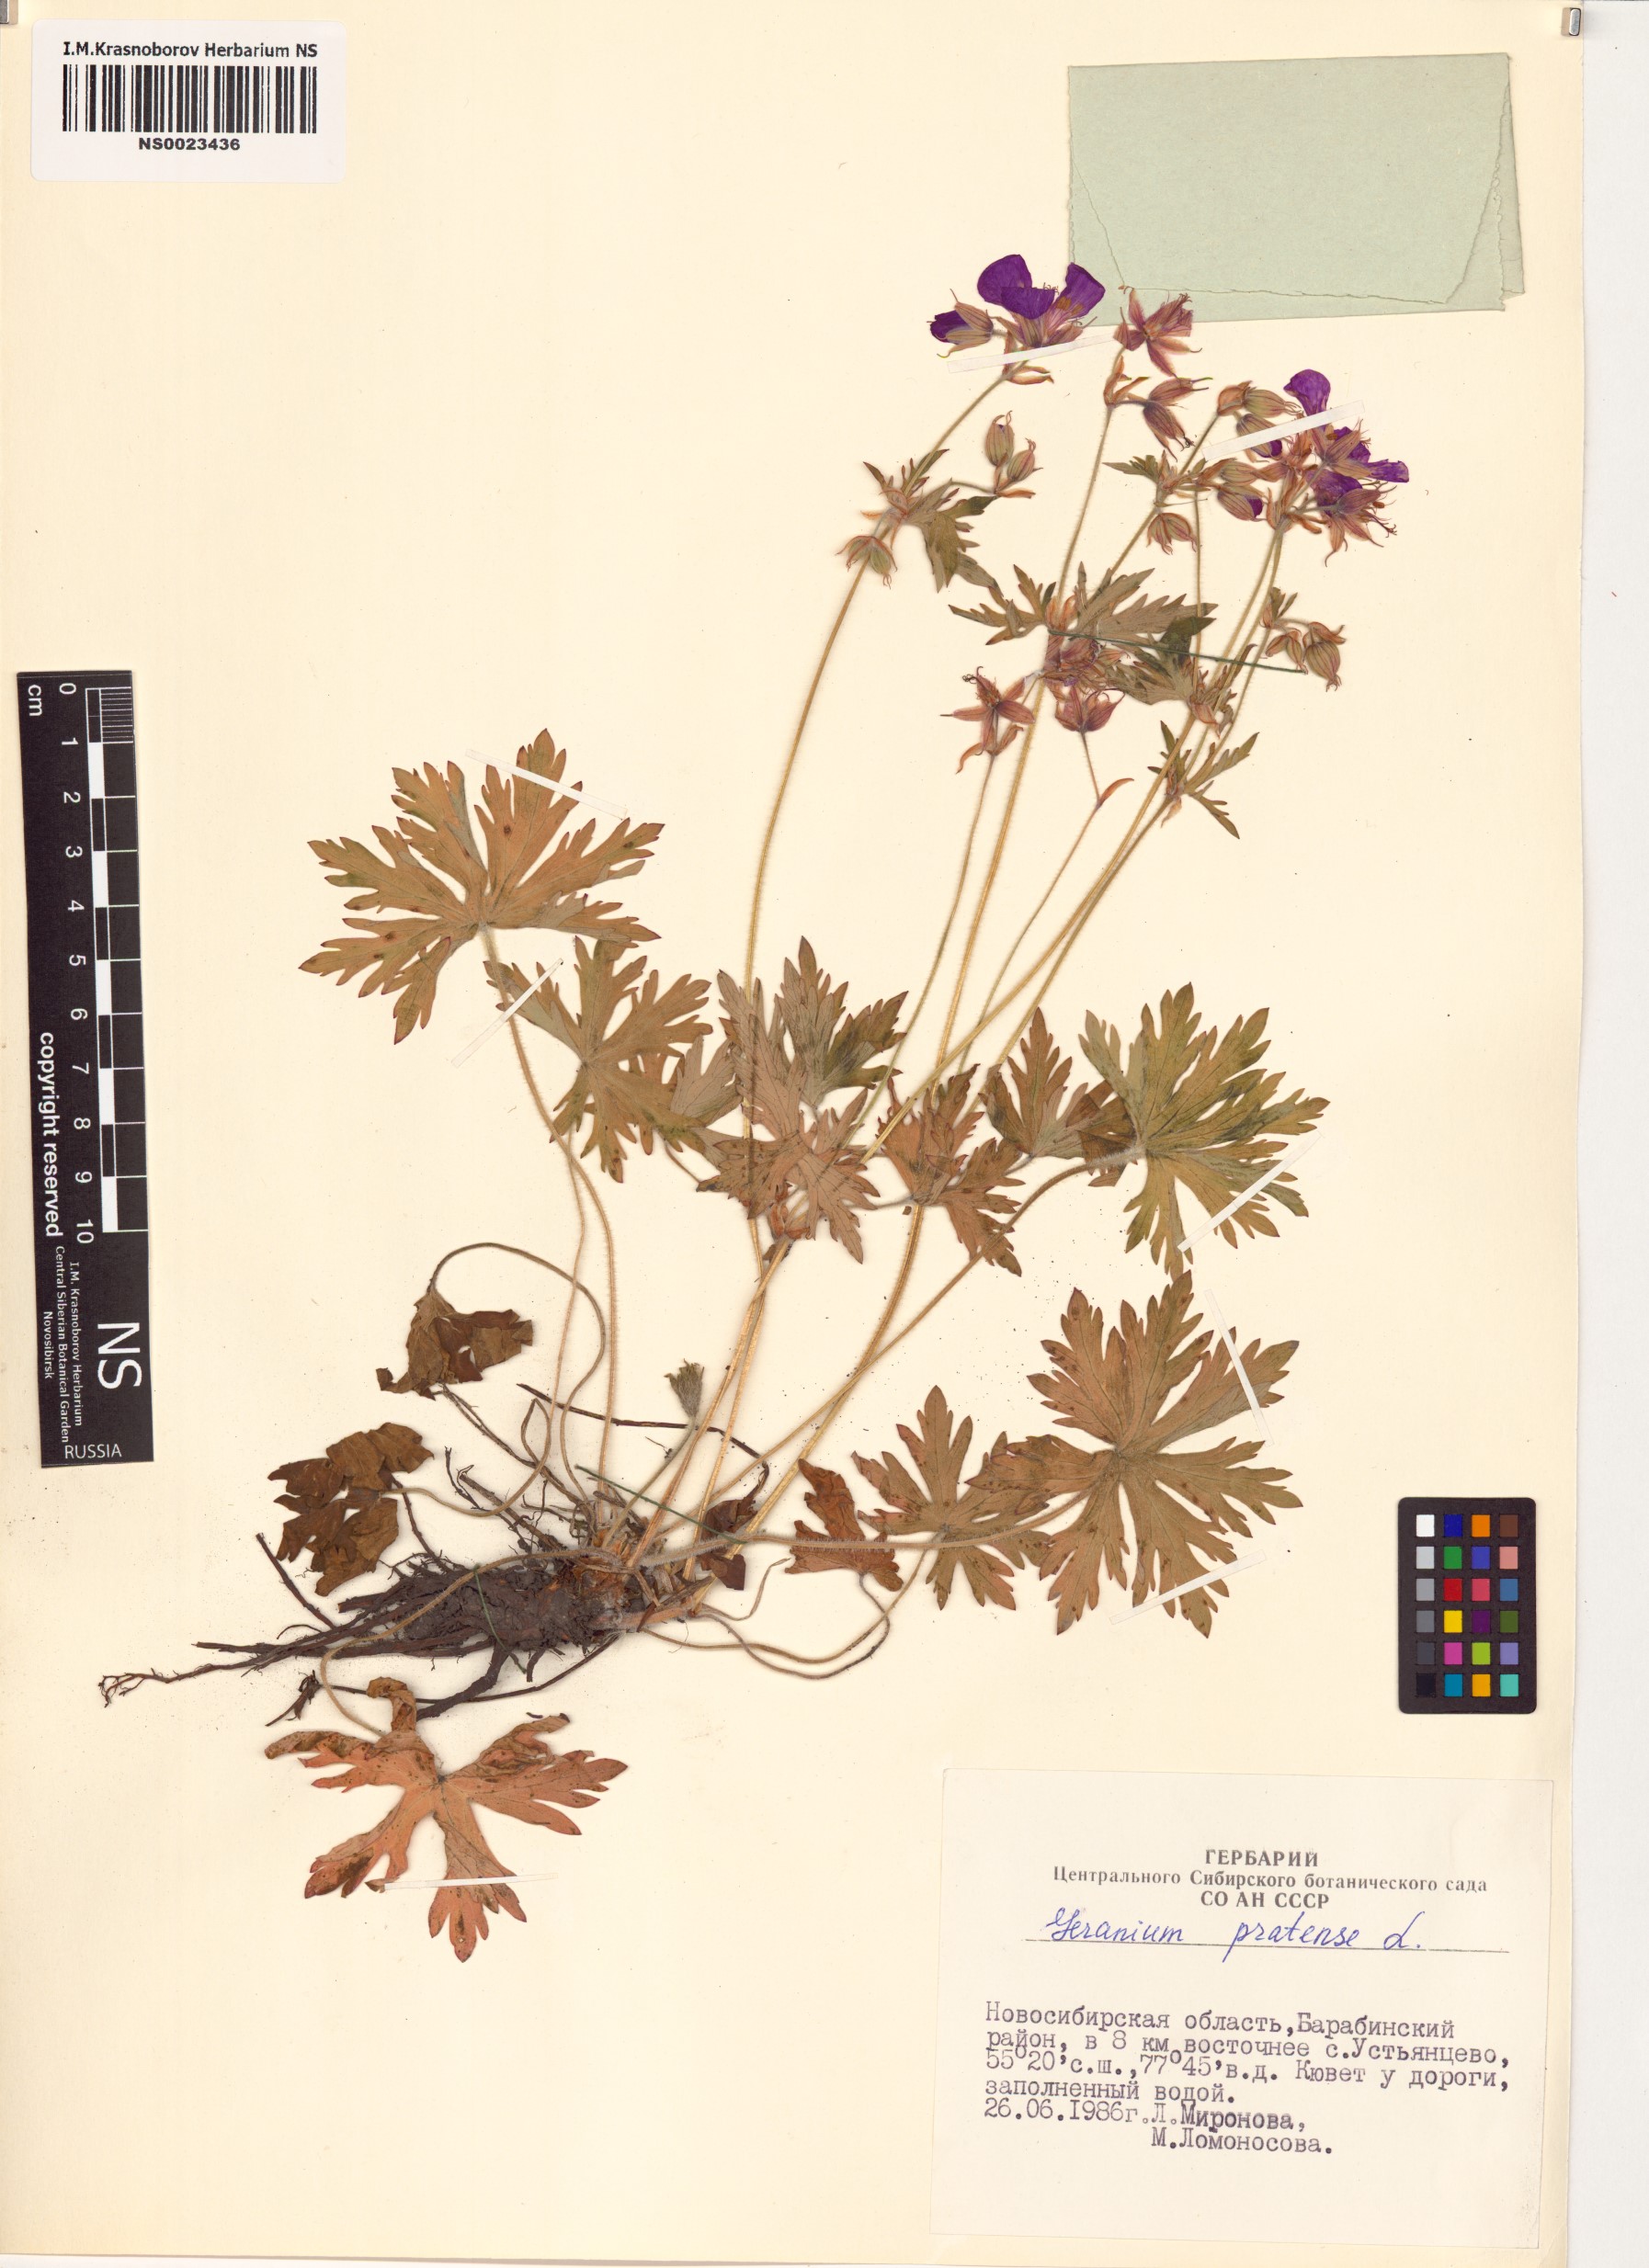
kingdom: Plantae
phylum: Tracheophyta
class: Magnoliopsida
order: Geraniales
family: Geraniaceae
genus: Geranium
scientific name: Geranium pratense
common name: Meadow crane's-bill
